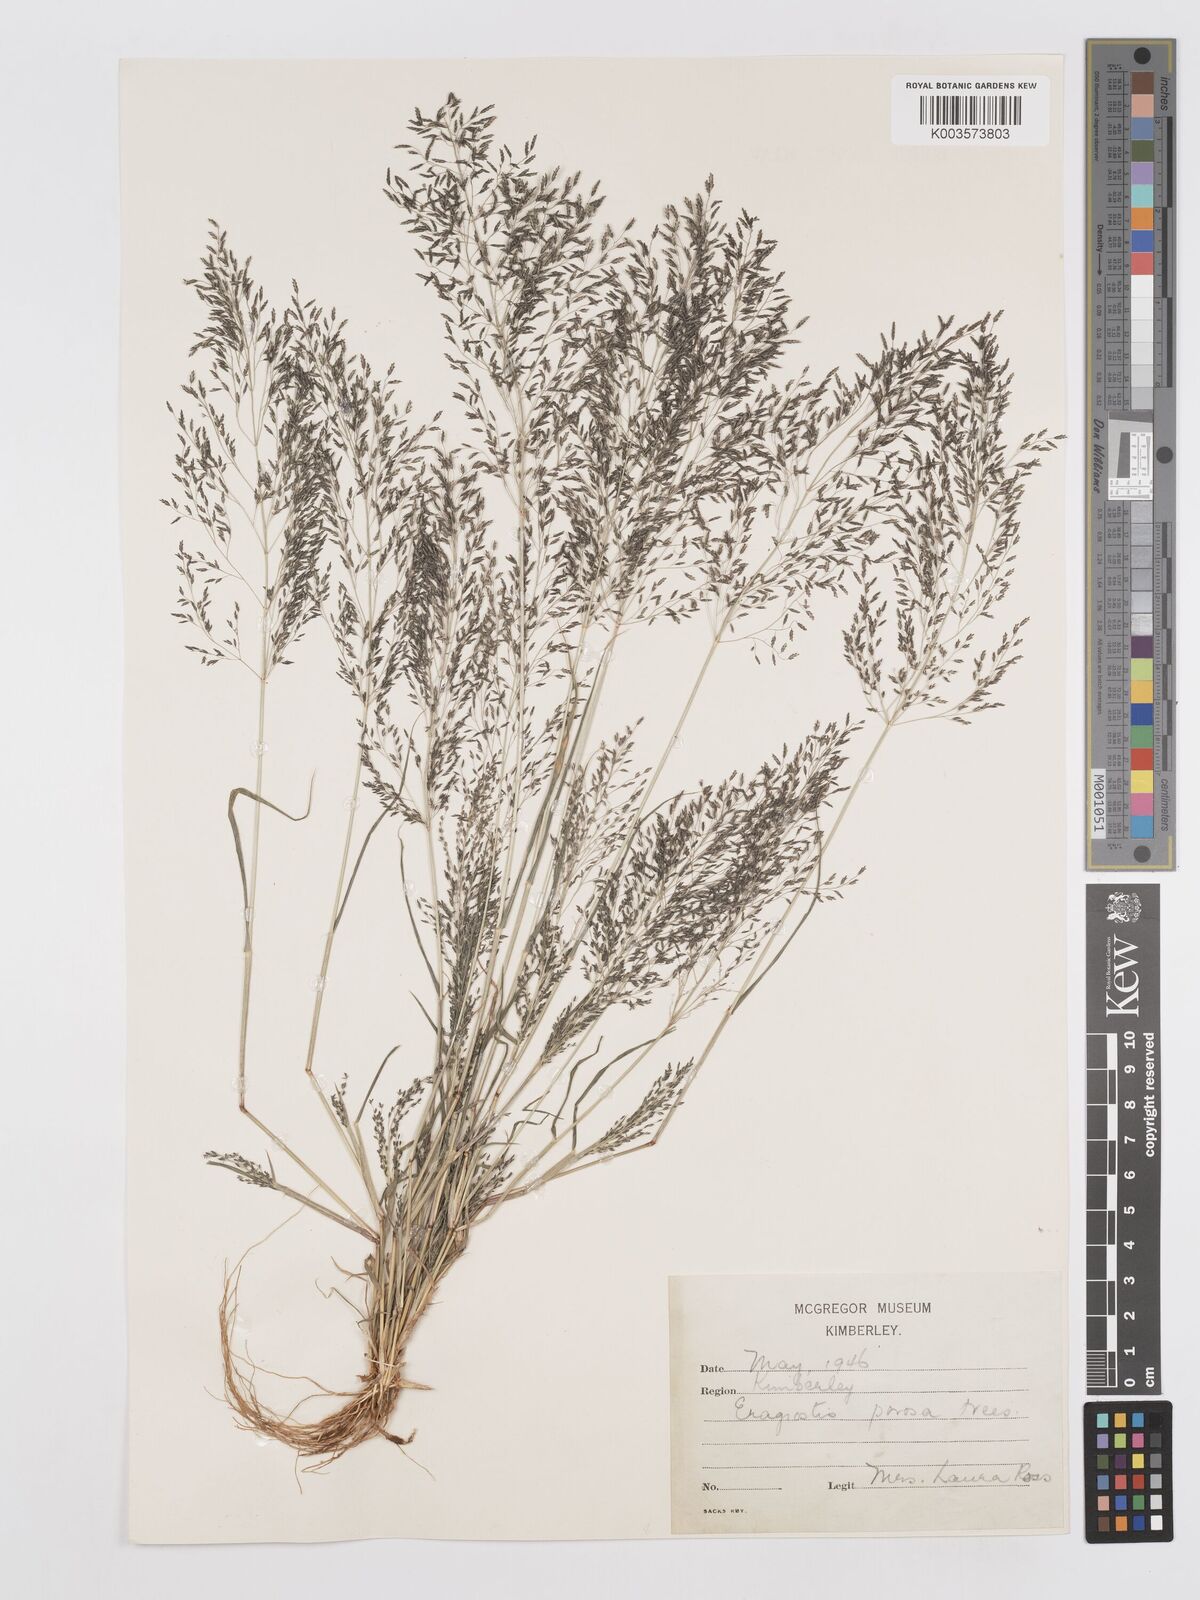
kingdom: Plantae
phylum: Tracheophyta
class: Liliopsida
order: Poales
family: Poaceae
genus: Eragrostis
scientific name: Eragrostis porosa
